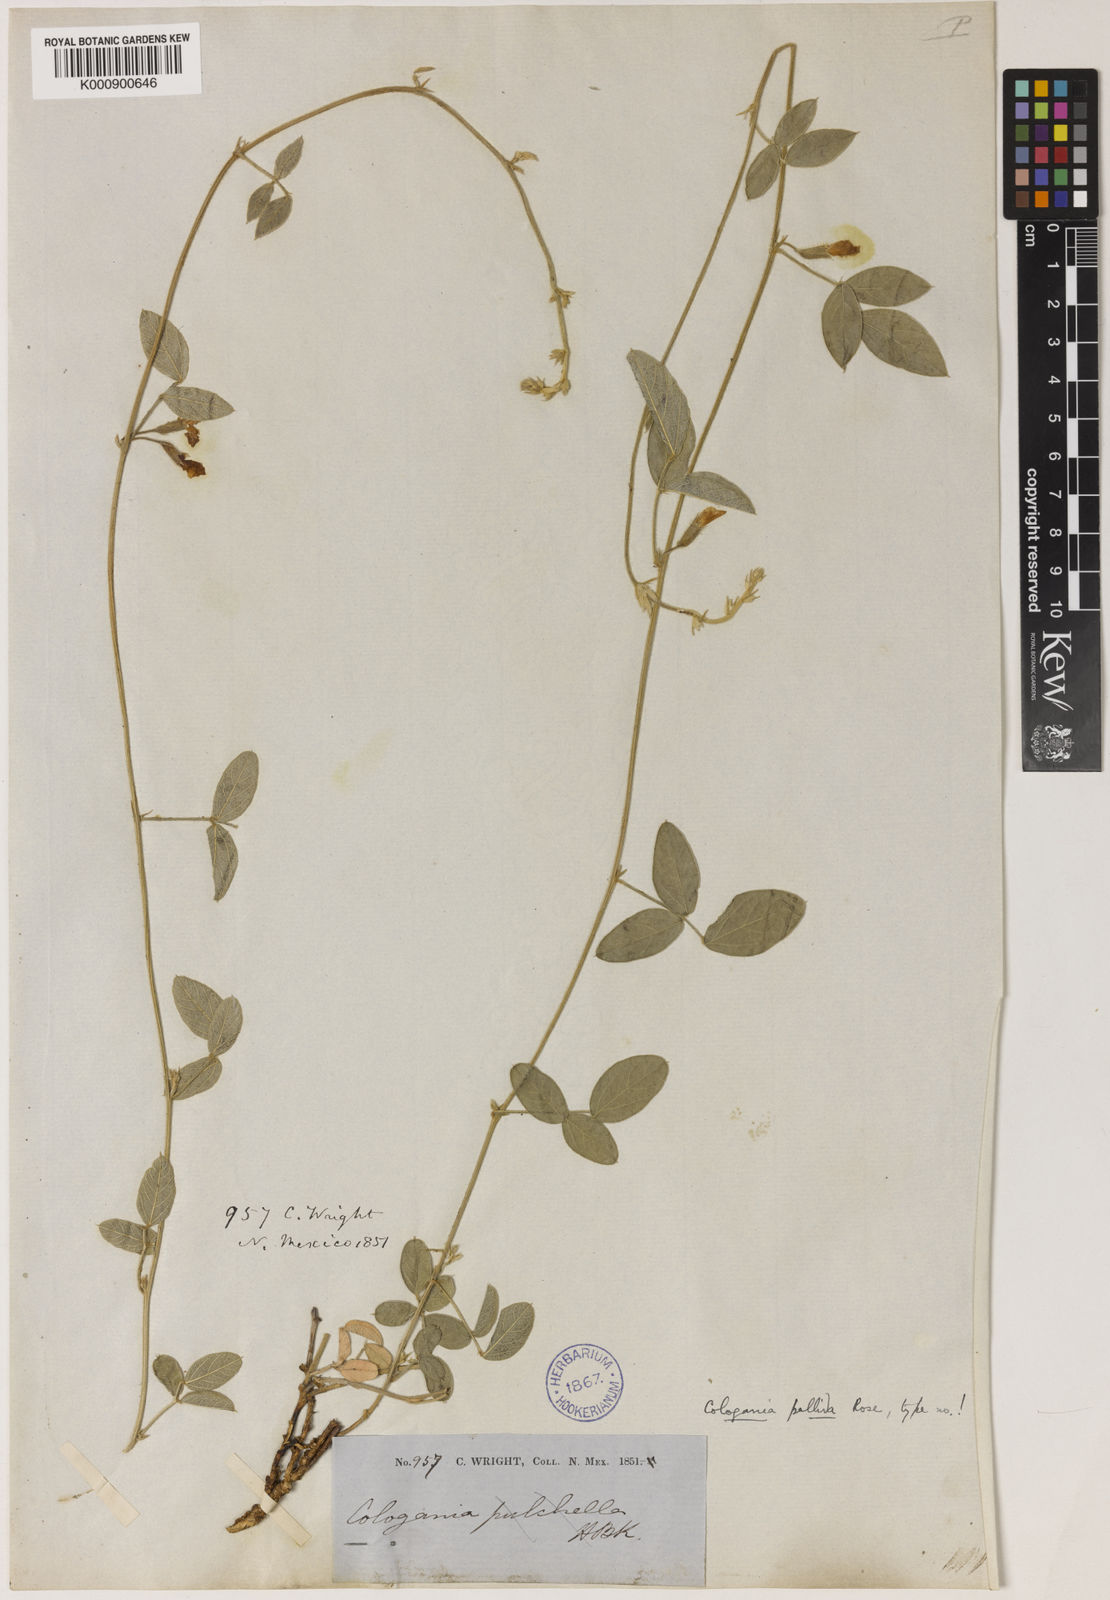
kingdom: Plantae
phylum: Tracheophyta
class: Magnoliopsida
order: Fabales
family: Fabaceae
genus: Cologania
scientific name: Cologania pallida
